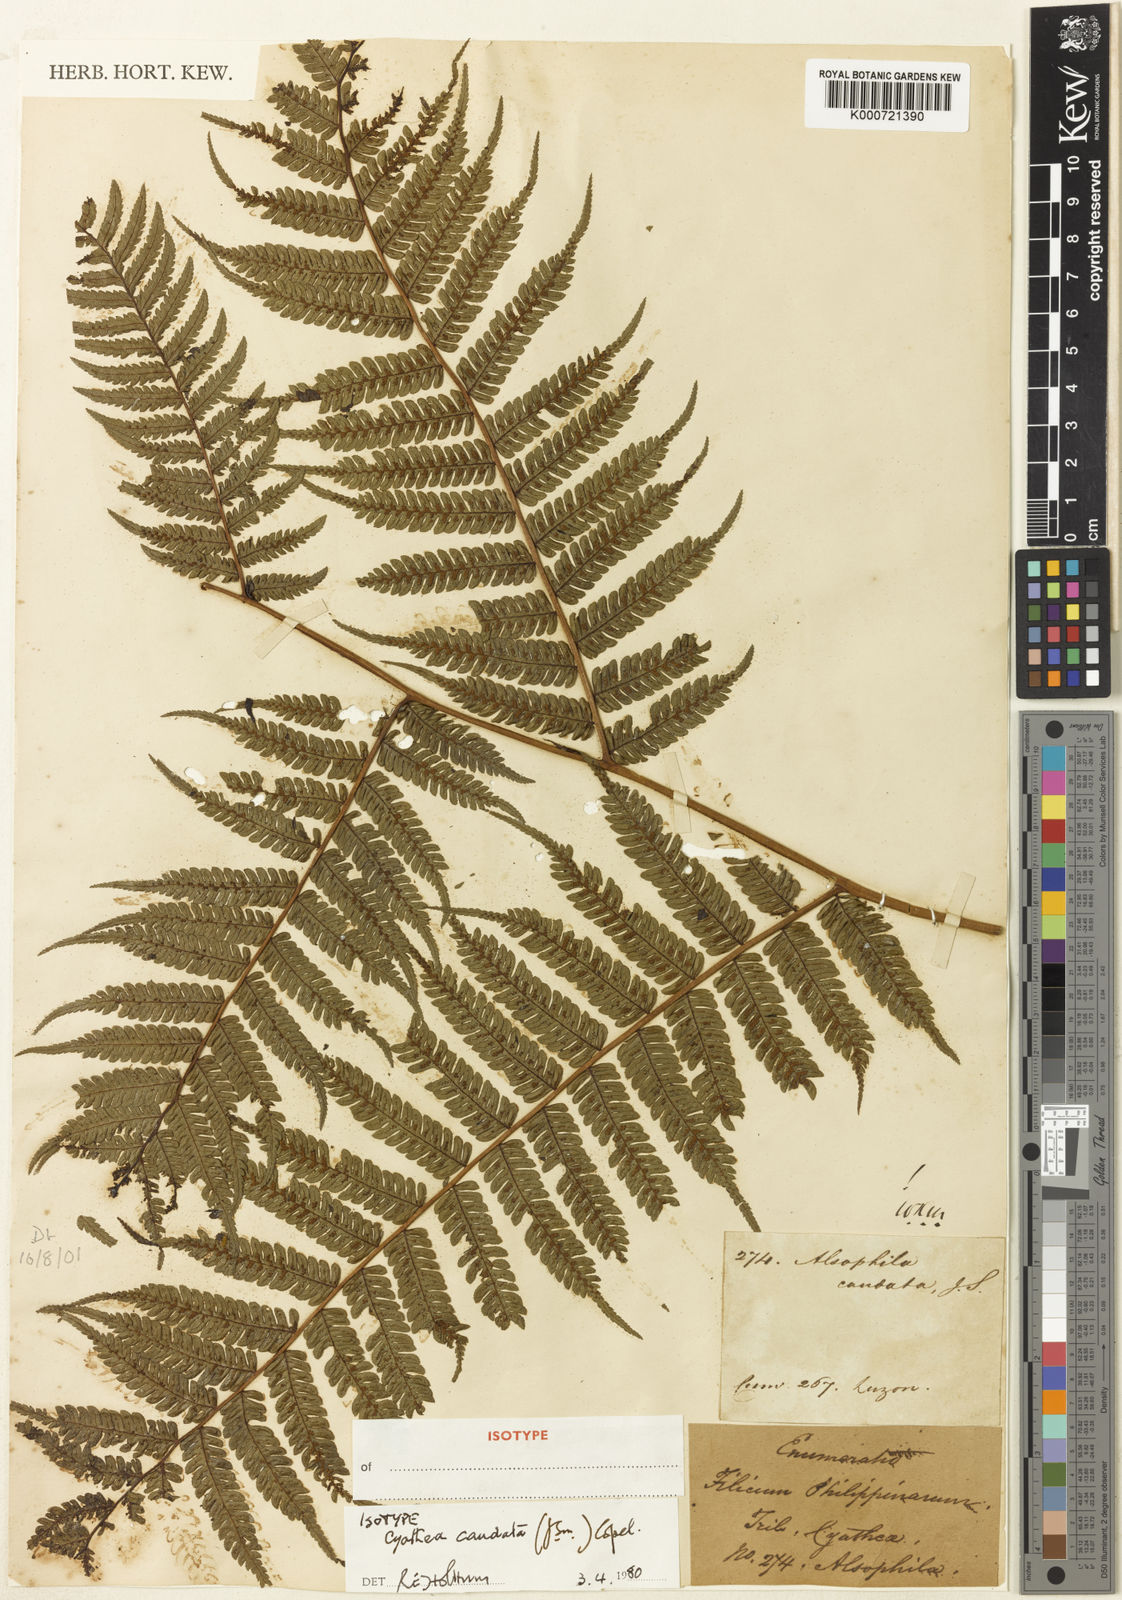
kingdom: Plantae
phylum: Tracheophyta
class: Polypodiopsida
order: Cyatheales
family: Cyatheaceae
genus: Alsophila
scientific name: Alsophila speciosa
